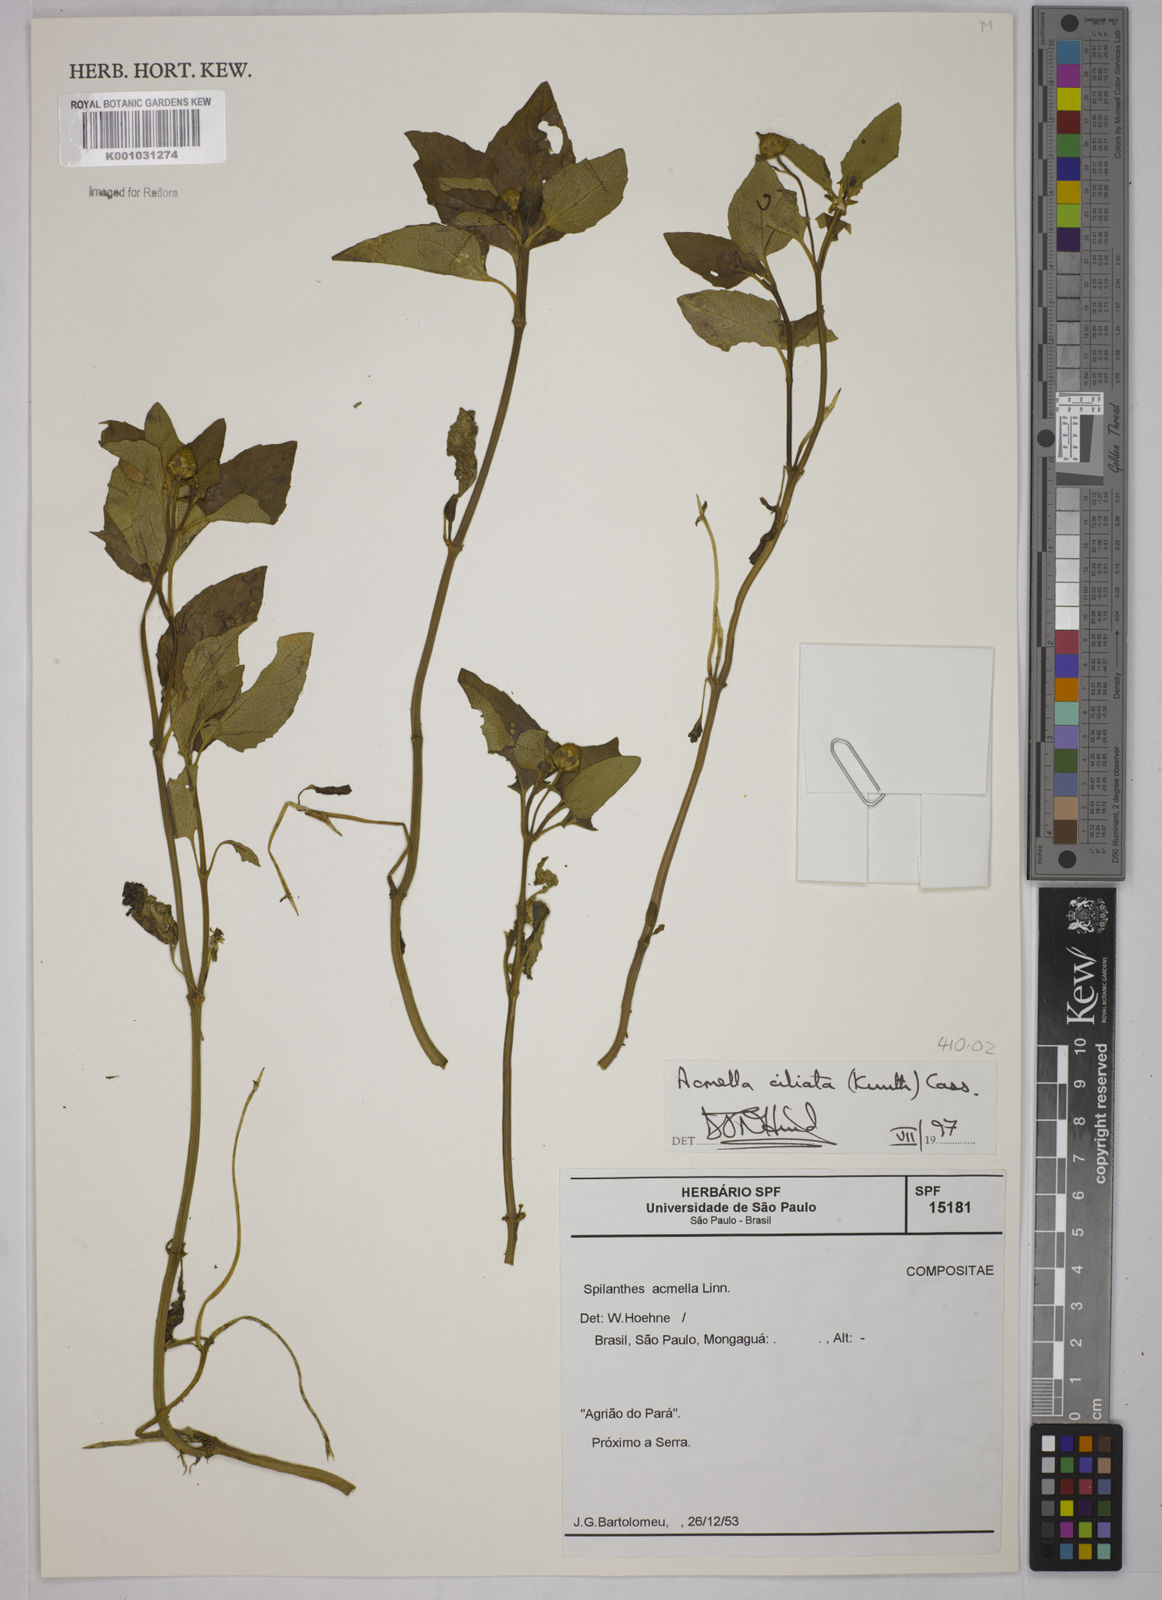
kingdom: Plantae
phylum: Tracheophyta
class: Magnoliopsida
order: Asterales
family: Asteraceae
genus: Acmella
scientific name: Acmella ciliata
